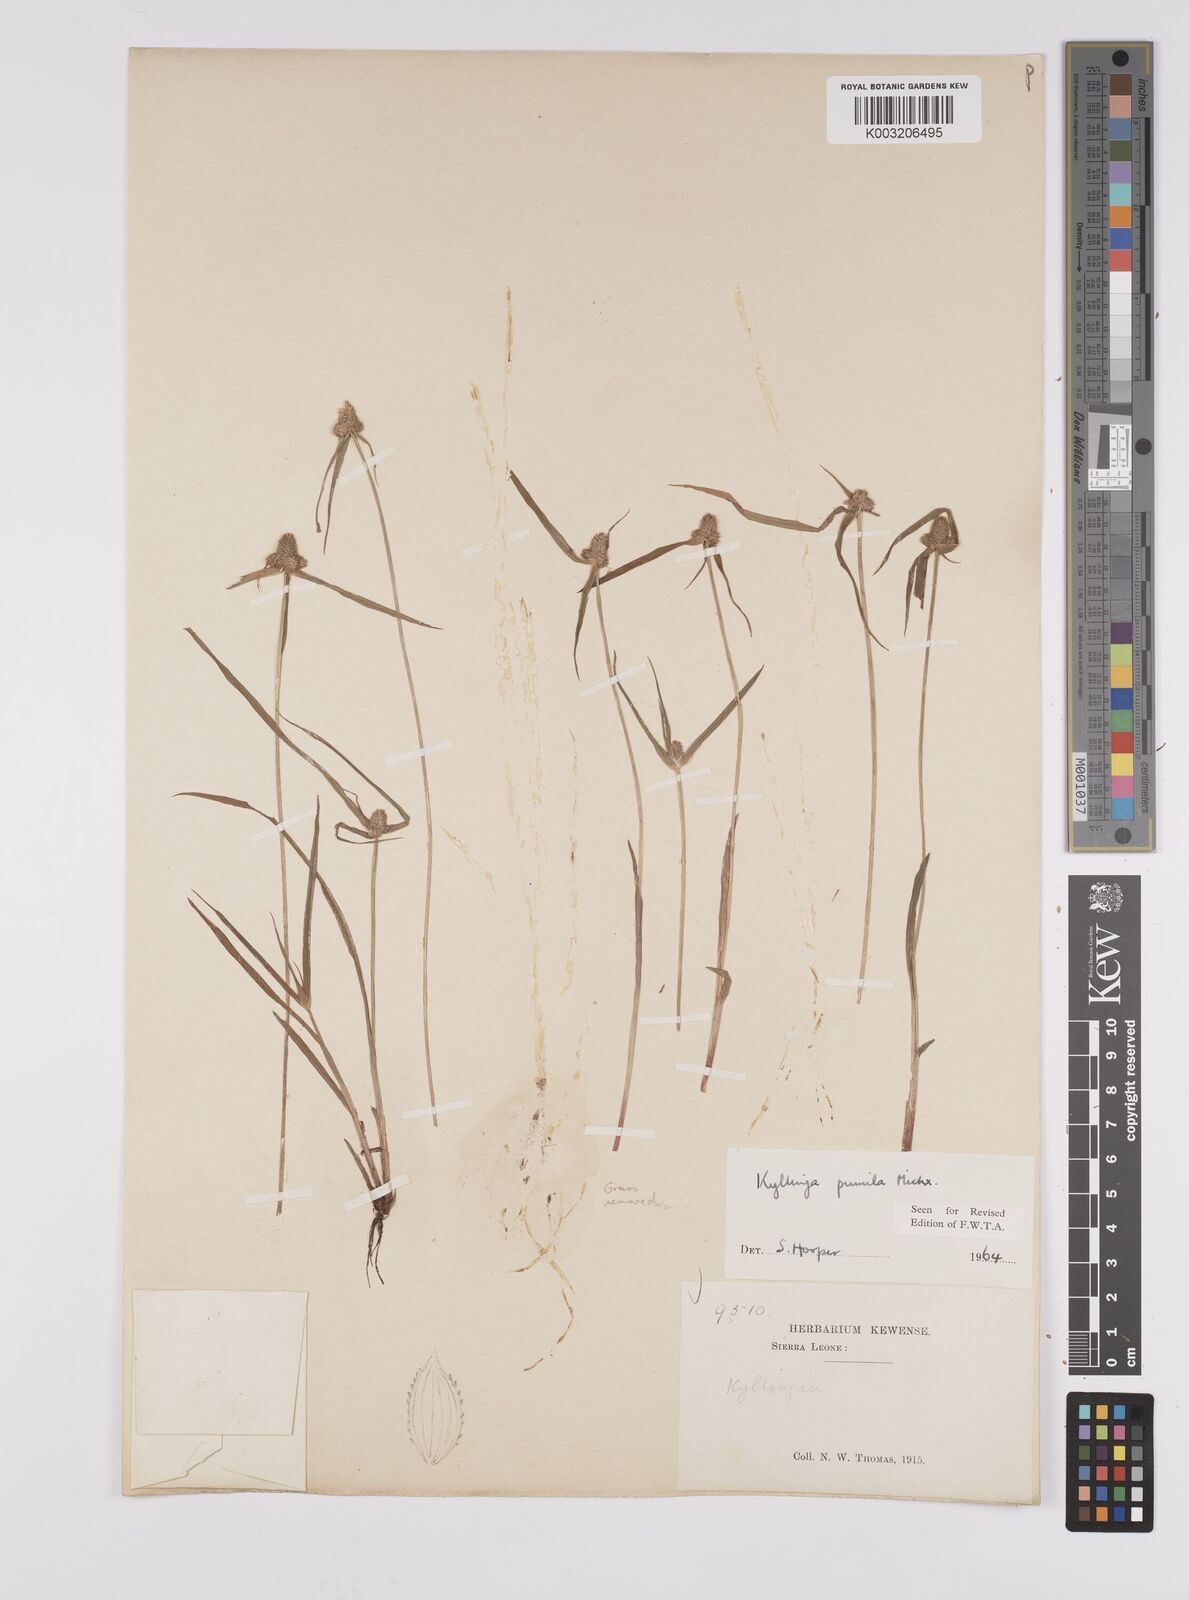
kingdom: Plantae
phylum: Tracheophyta
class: Liliopsida
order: Poales
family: Cyperaceae
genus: Cyperus
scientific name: Cyperus
